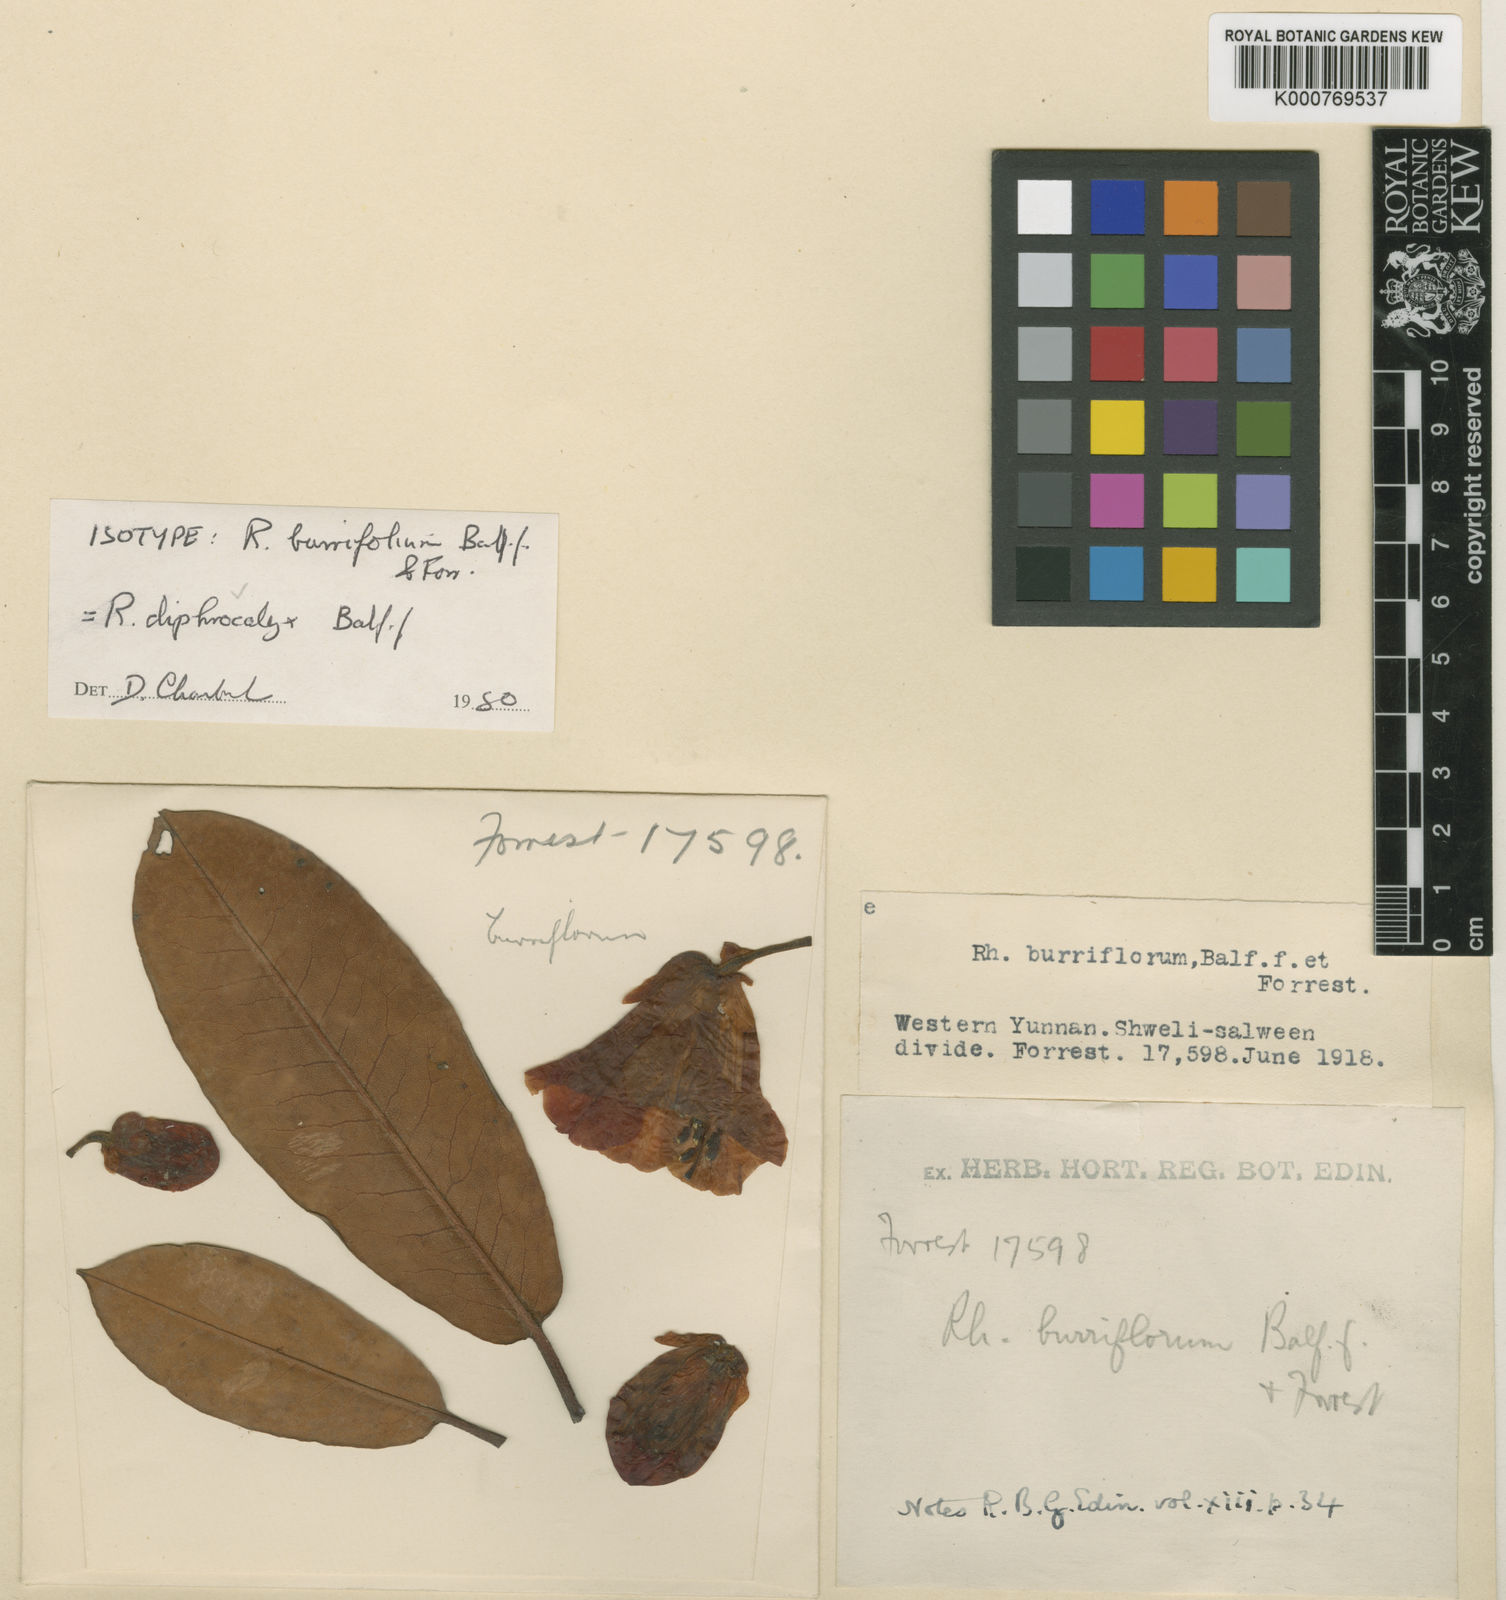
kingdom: Plantae
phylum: Tracheophyta
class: Magnoliopsida
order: Ericales
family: Ericaceae
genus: Rhododendron
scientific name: Rhododendron diphrocalyx
